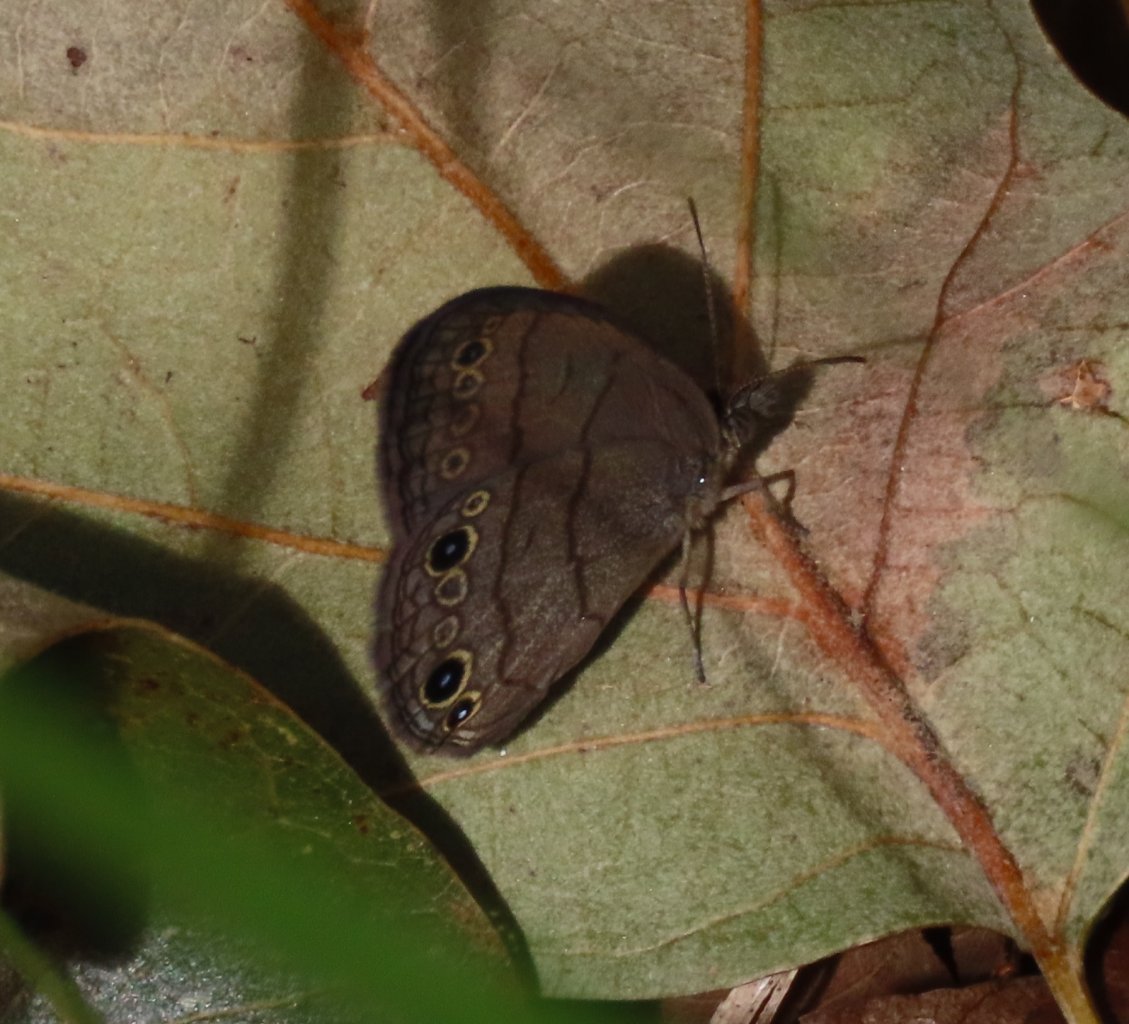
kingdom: Animalia
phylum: Arthropoda
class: Insecta
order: Lepidoptera
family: Nymphalidae
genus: Hermeuptychia
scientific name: Hermeuptychia intricata
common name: Intricate Satyr
